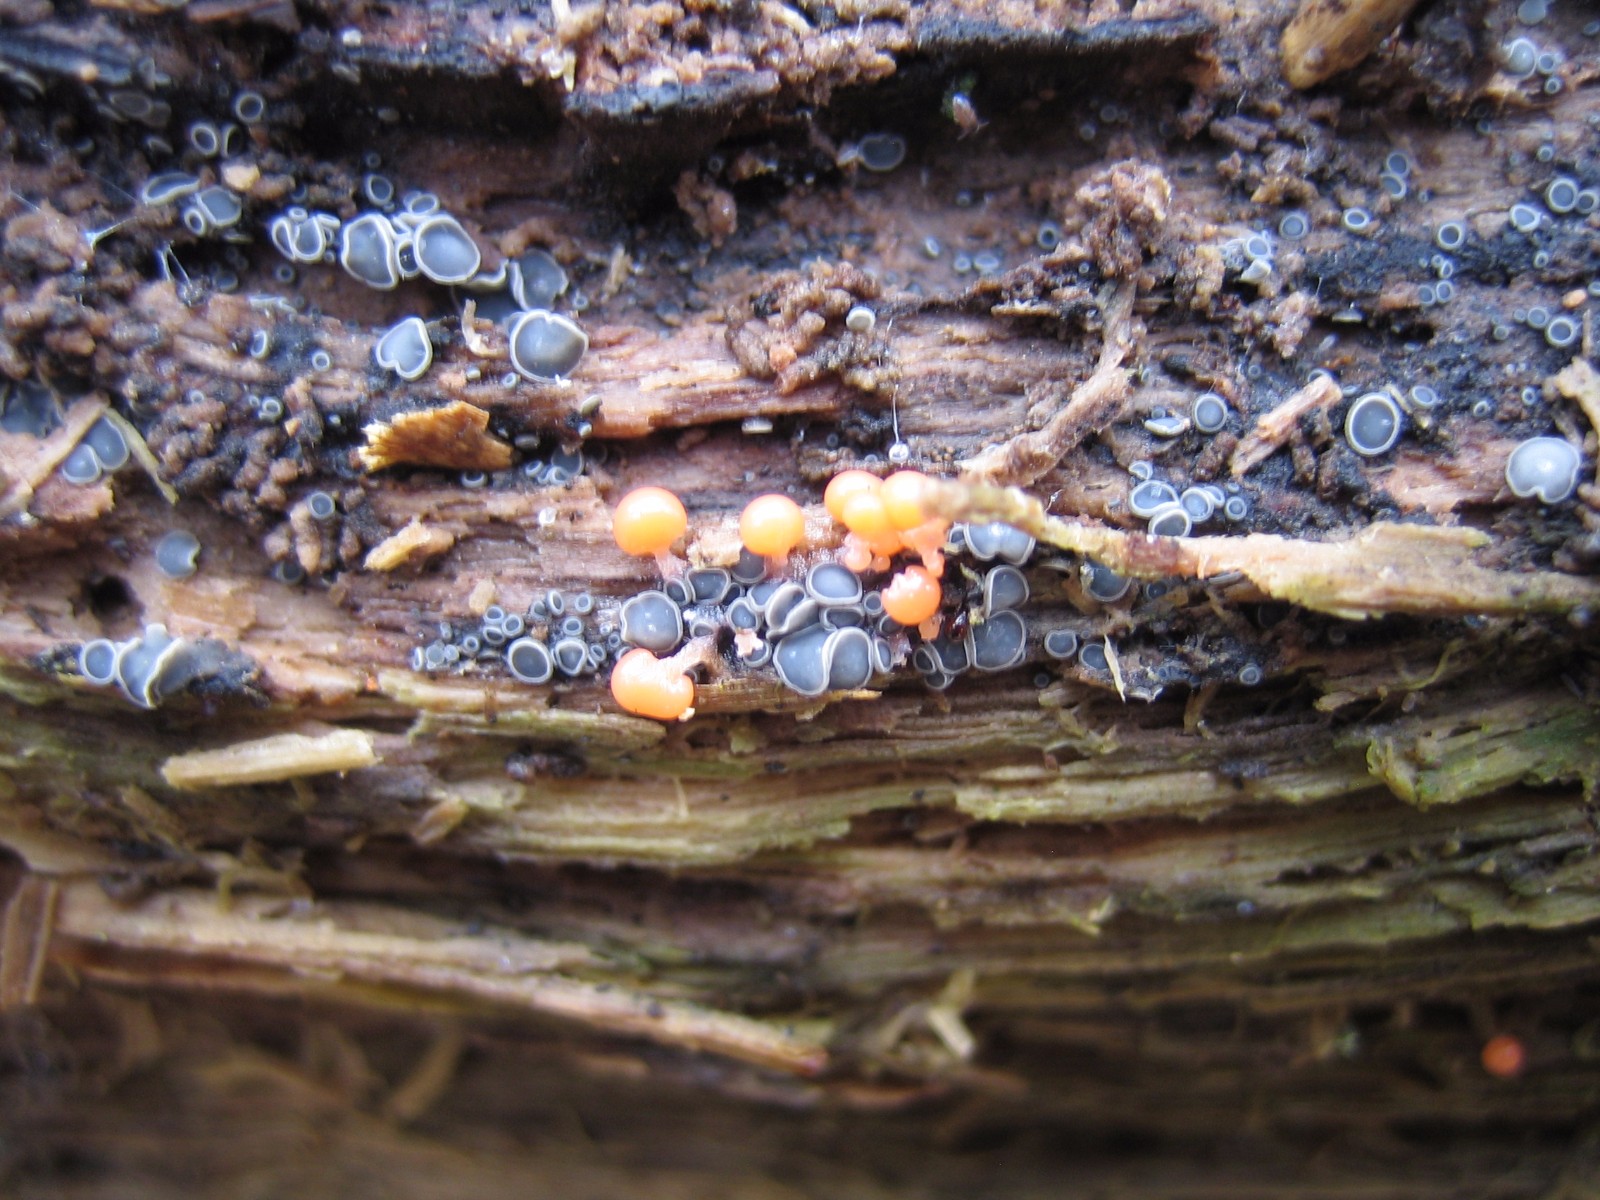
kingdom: Fungi
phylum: Ascomycota
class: Leotiomycetes
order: Helotiales
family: Mollisiaceae
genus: Mollisia
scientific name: Mollisia cinerea
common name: almindelig gråskive
